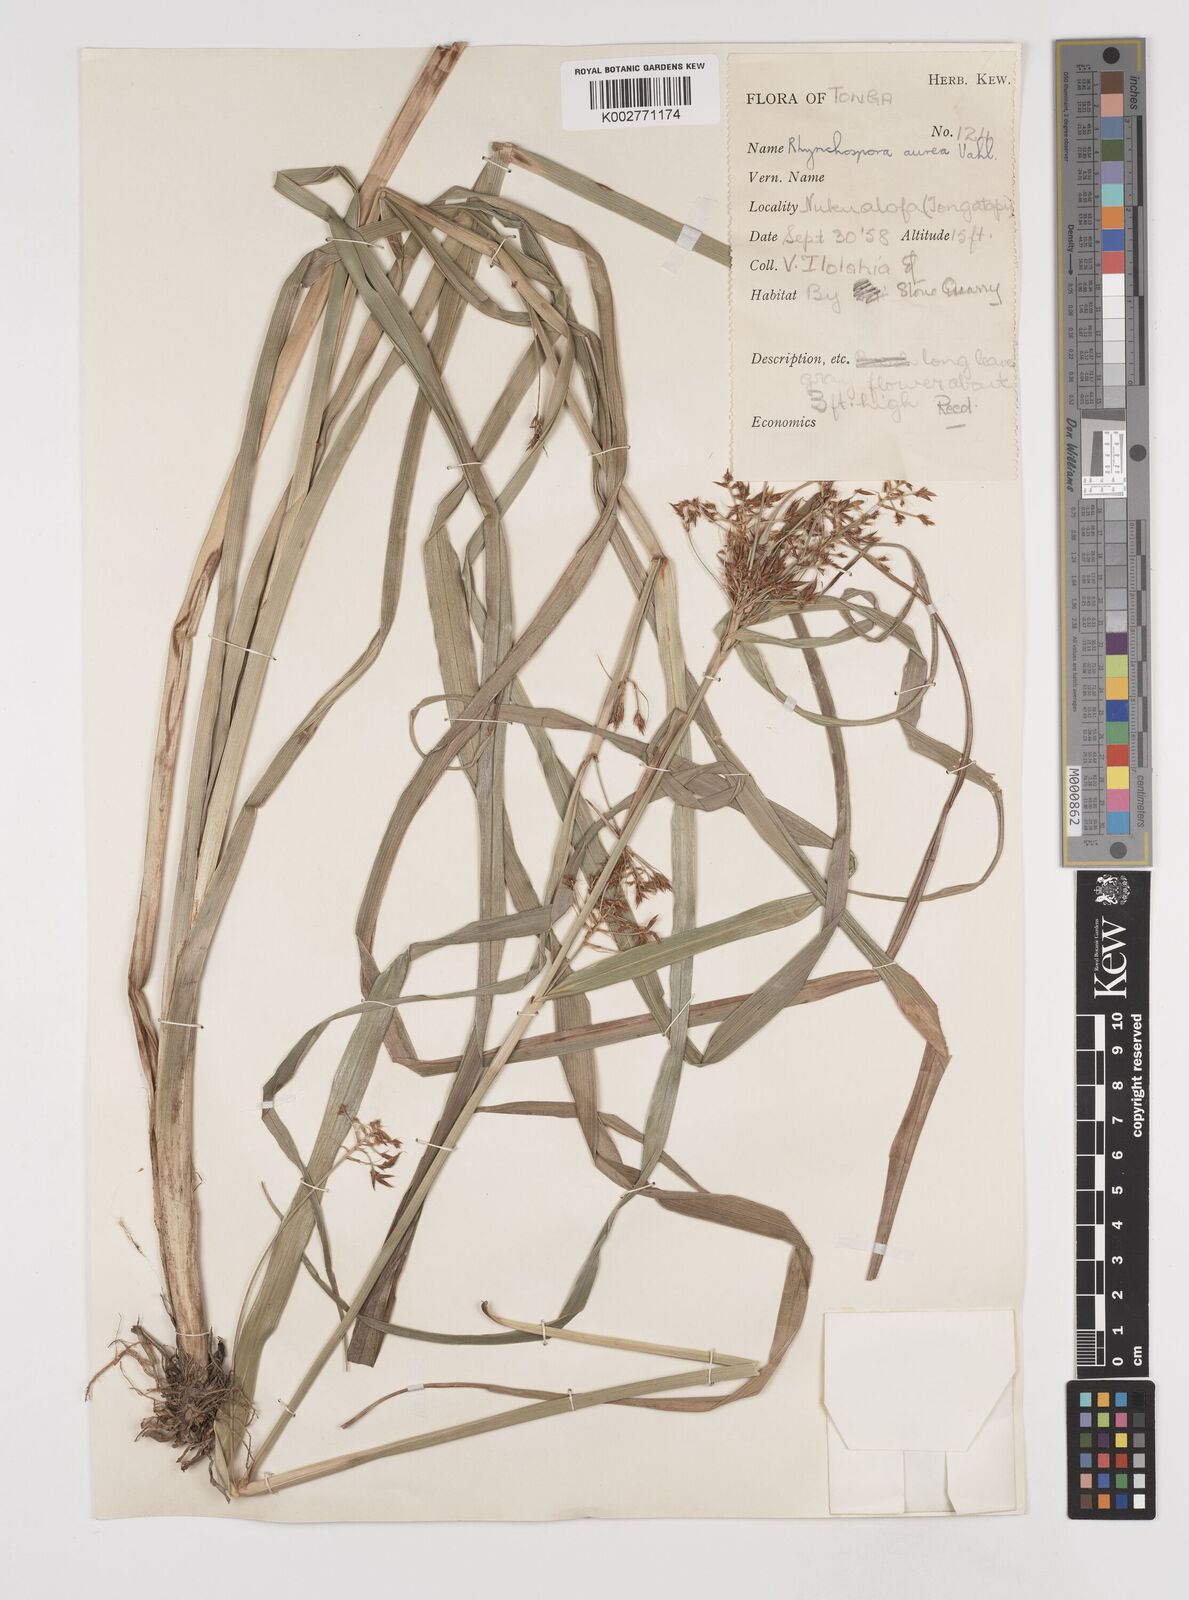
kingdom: Plantae
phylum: Tracheophyta
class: Liliopsida
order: Poales
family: Cyperaceae
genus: Rhynchospora
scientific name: Rhynchospora corymbosa
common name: Golden beak sedge
